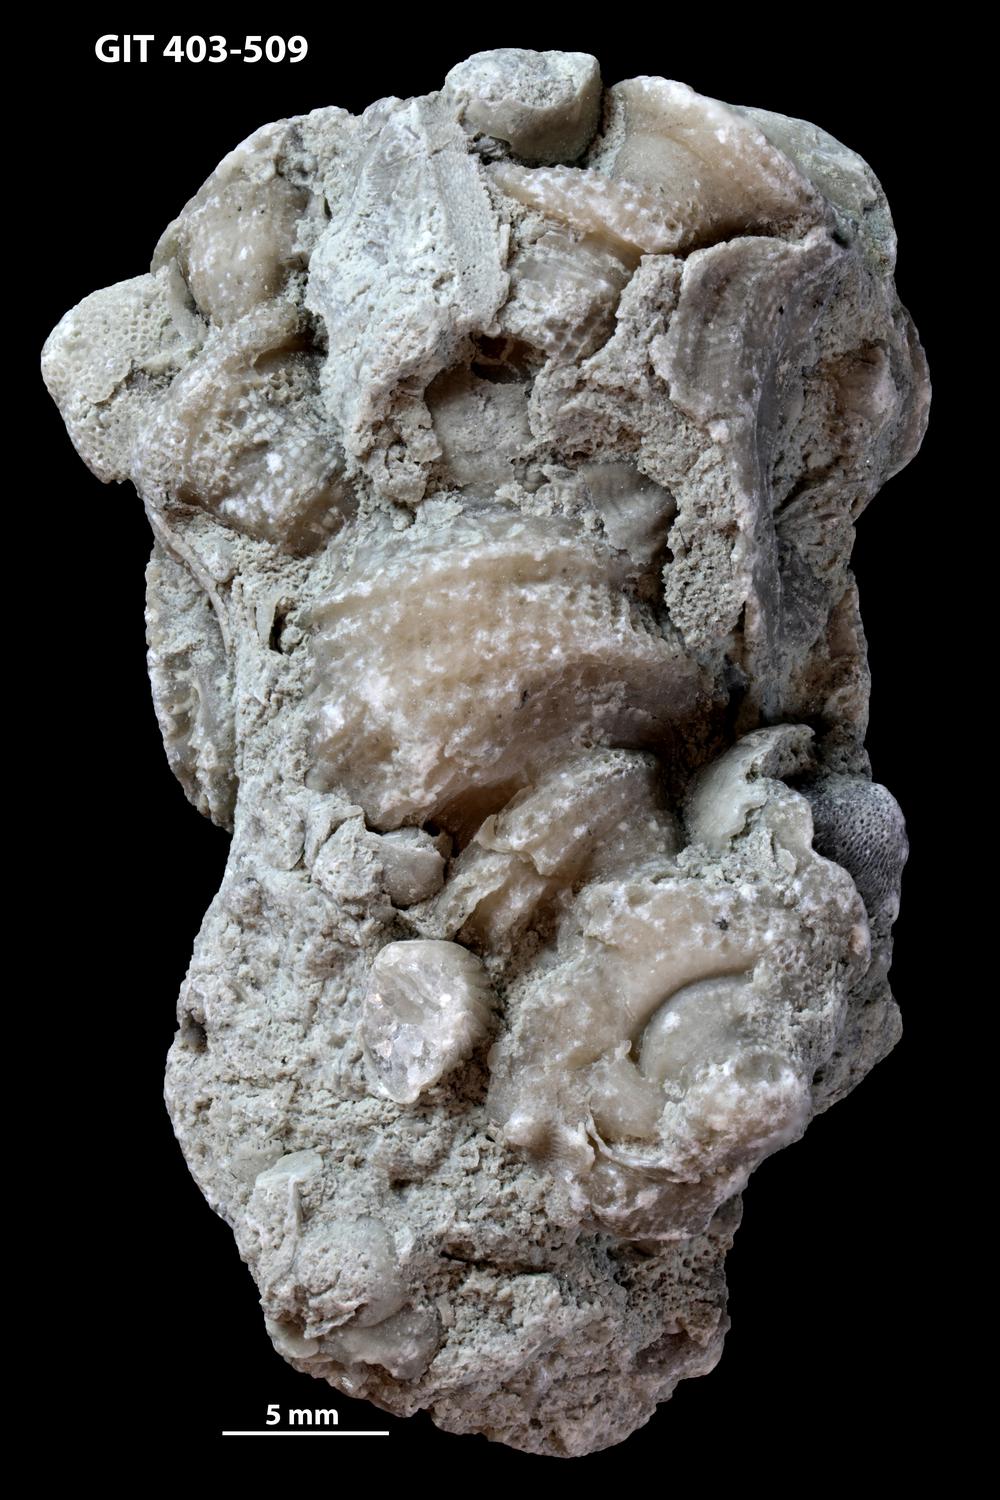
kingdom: Animalia
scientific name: Animalia
